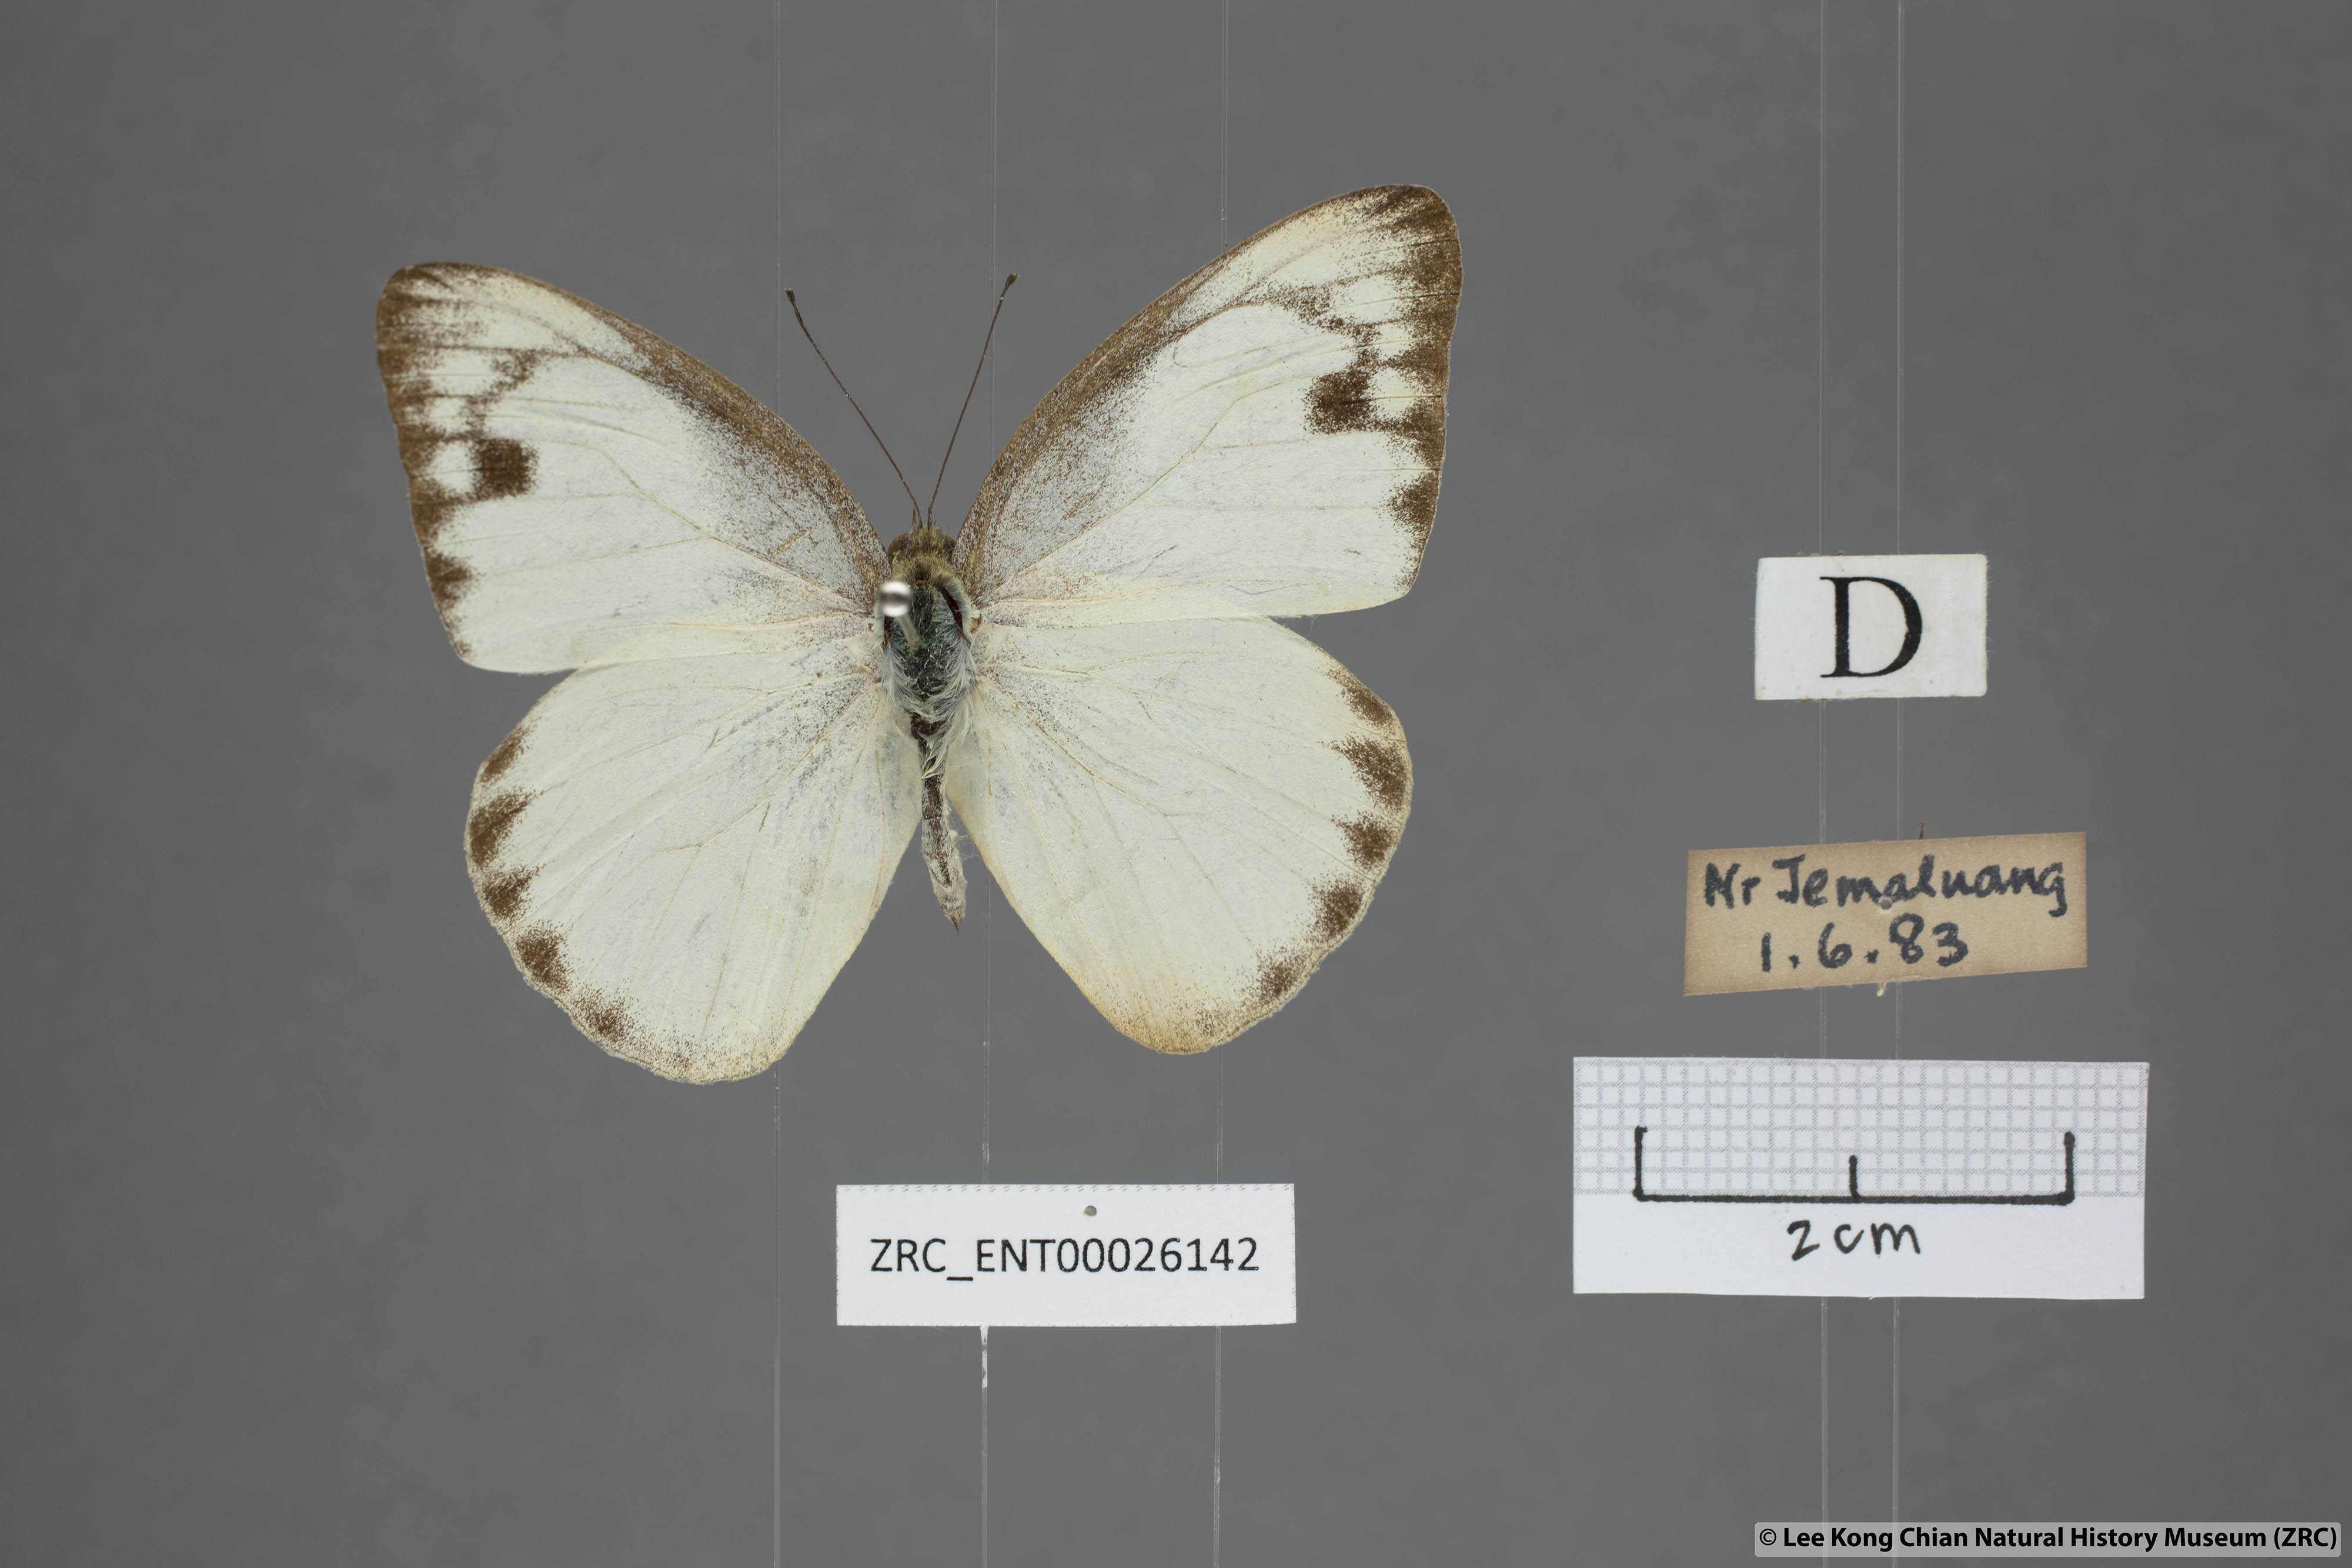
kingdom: Animalia
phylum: Arthropoda
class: Insecta
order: Lepidoptera
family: Pieridae
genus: Appias
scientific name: Appias paulina
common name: Ceylon lesser albatross
